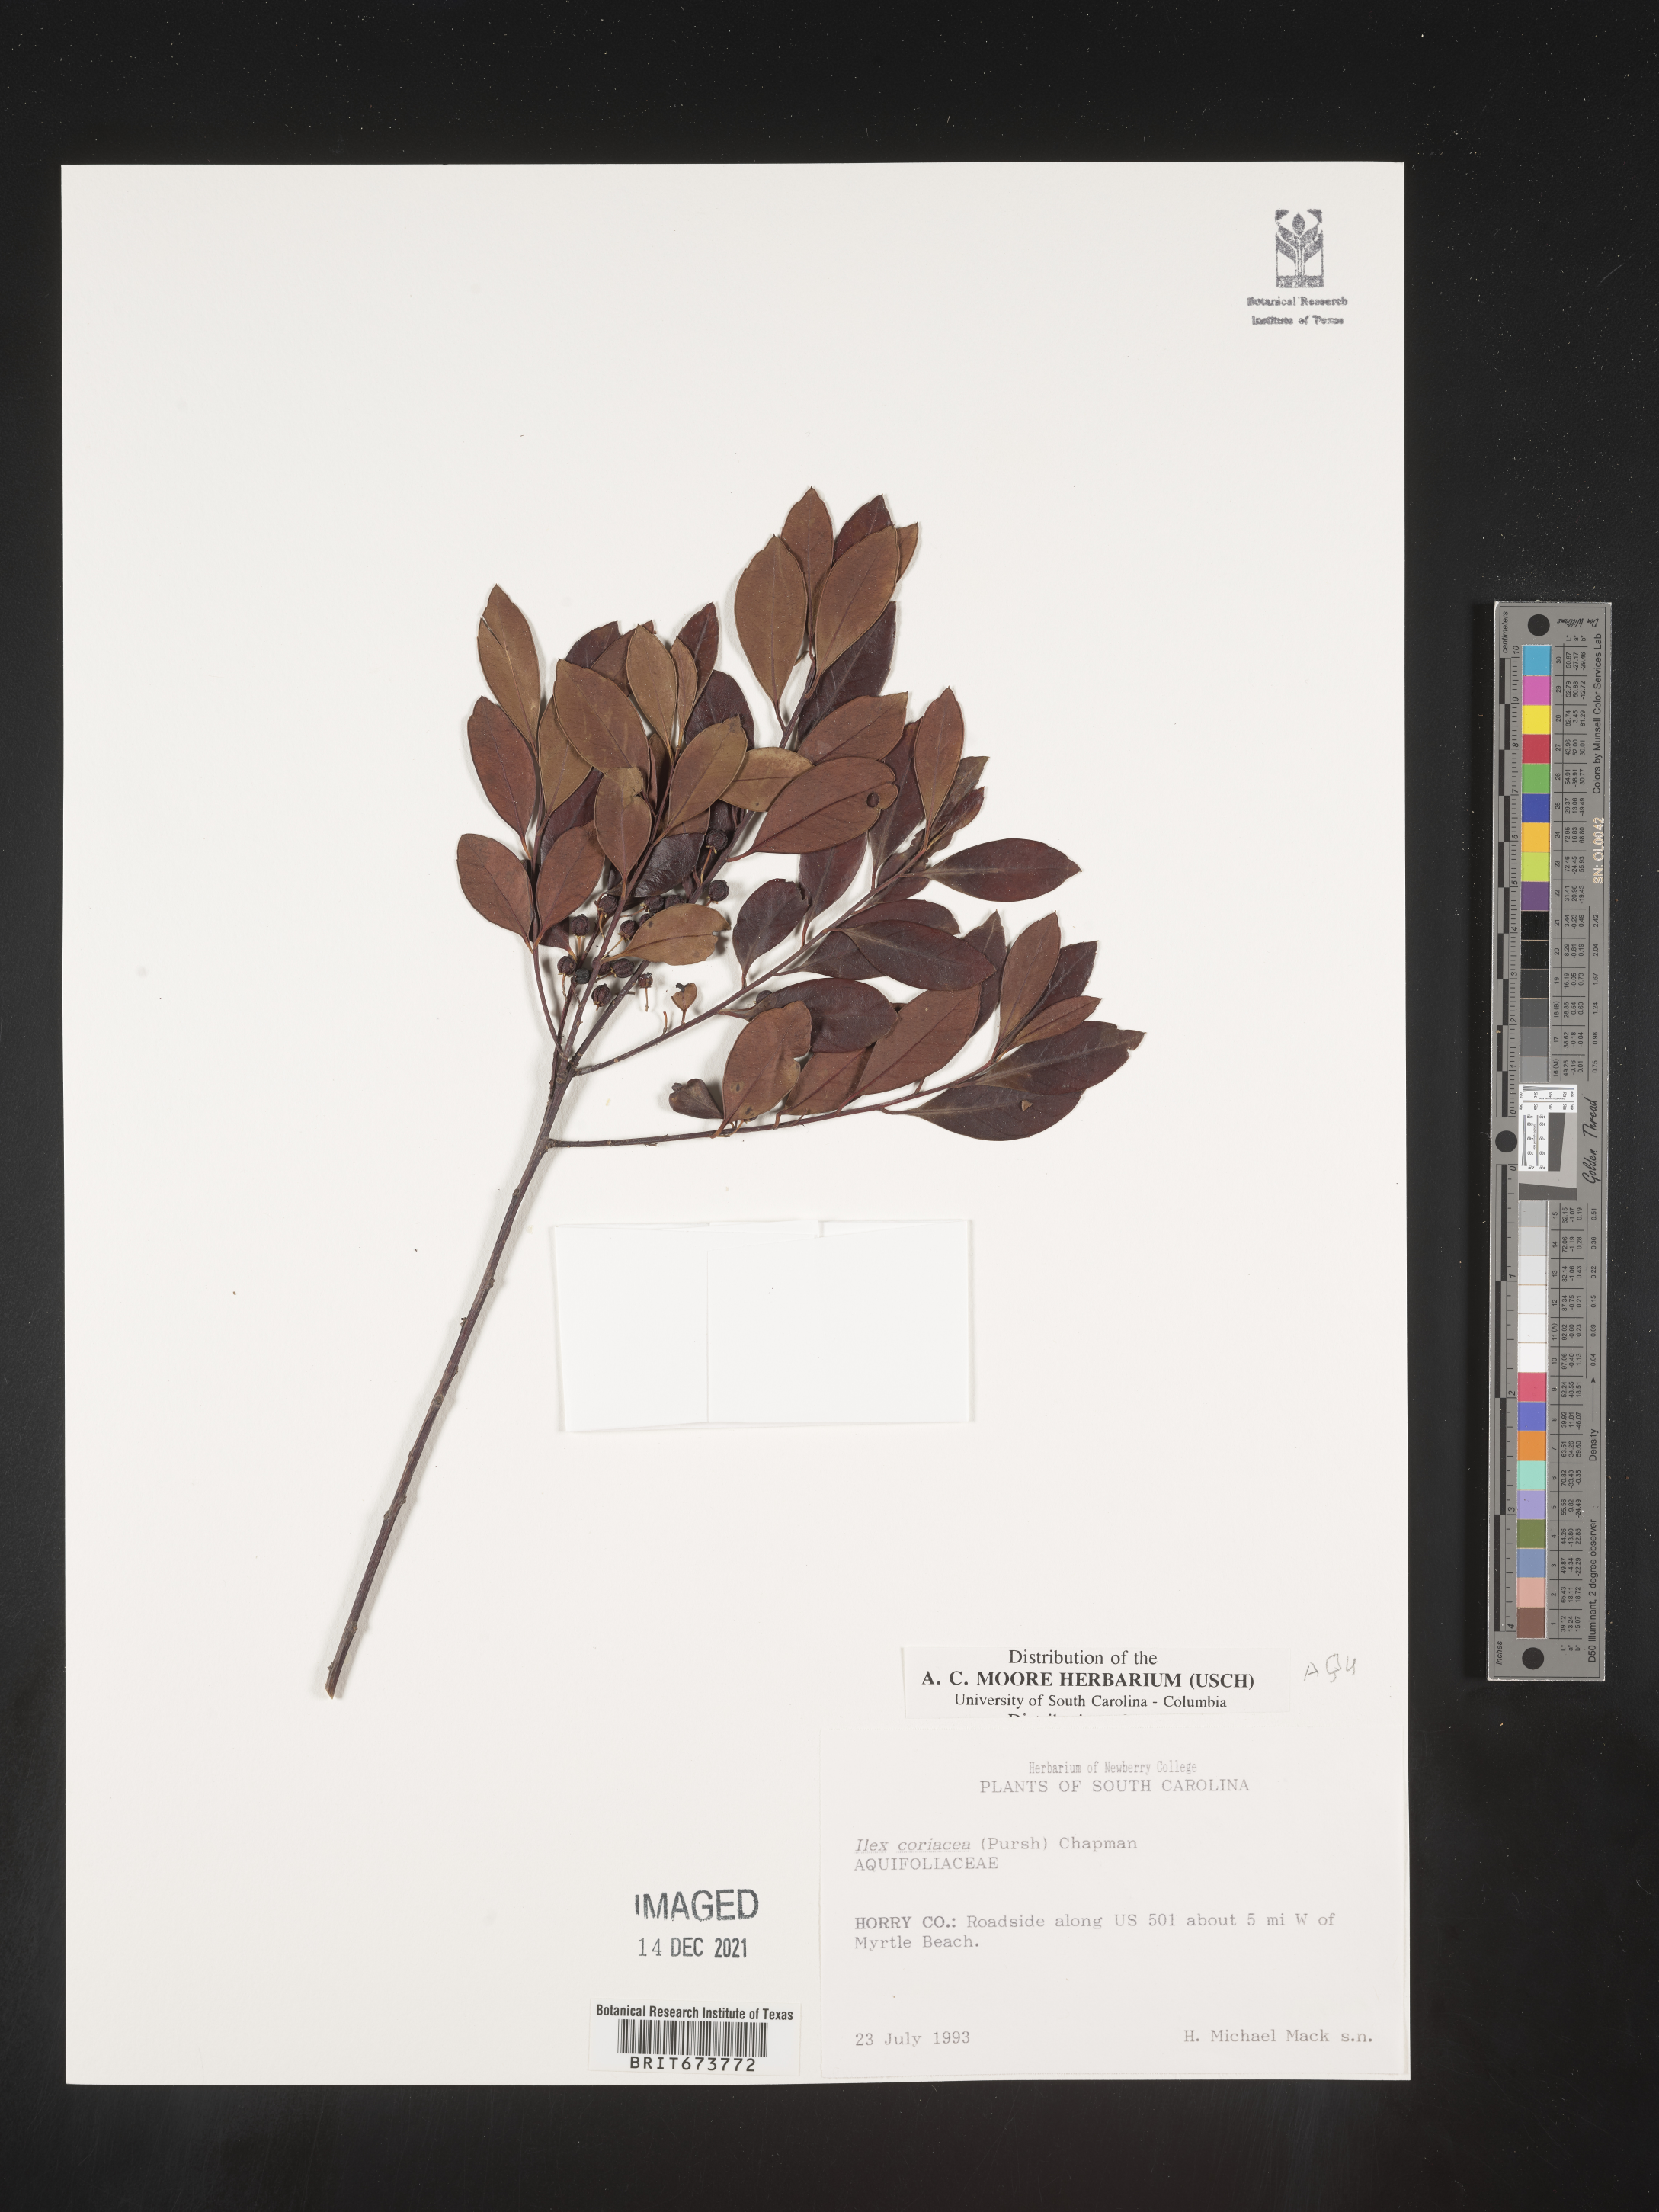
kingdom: Plantae
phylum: Tracheophyta
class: Magnoliopsida
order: Aquifoliales
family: Aquifoliaceae
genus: Ilex
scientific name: Ilex coriacea
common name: Sweet gallberry
